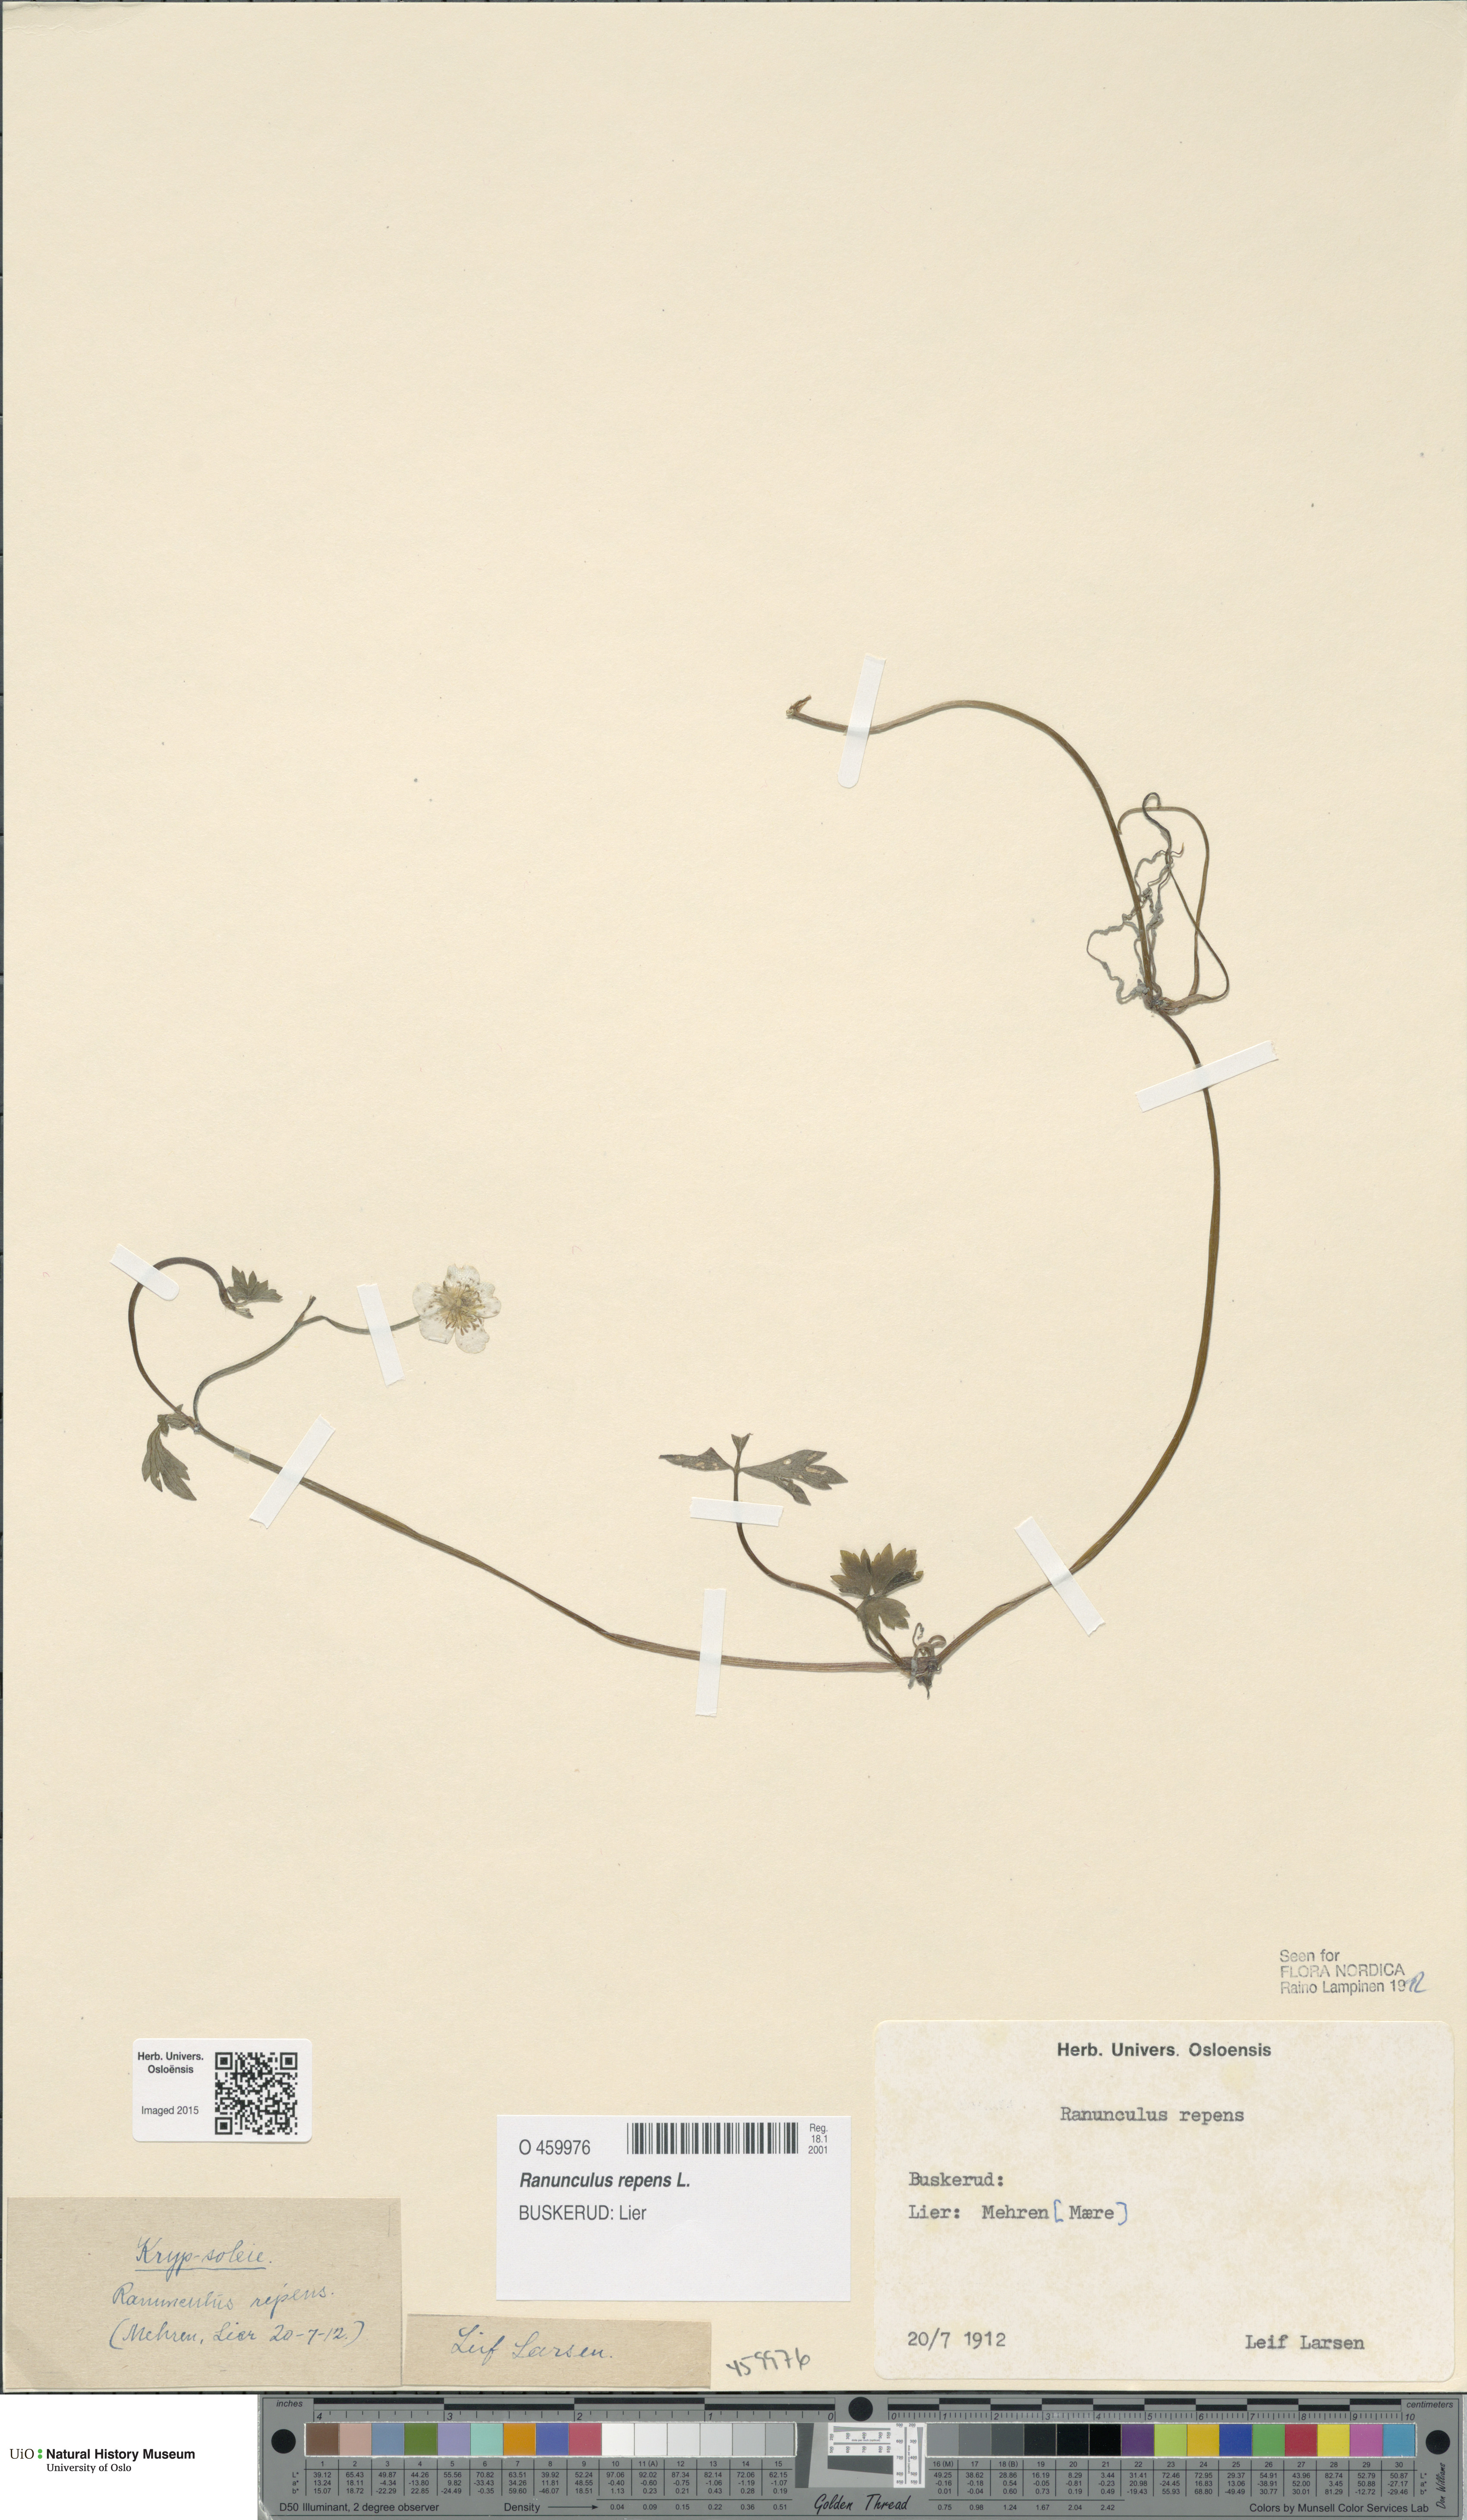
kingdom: Plantae
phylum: Tracheophyta
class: Magnoliopsida
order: Ranunculales
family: Ranunculaceae
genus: Ranunculus
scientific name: Ranunculus repens
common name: Creeping buttercup
